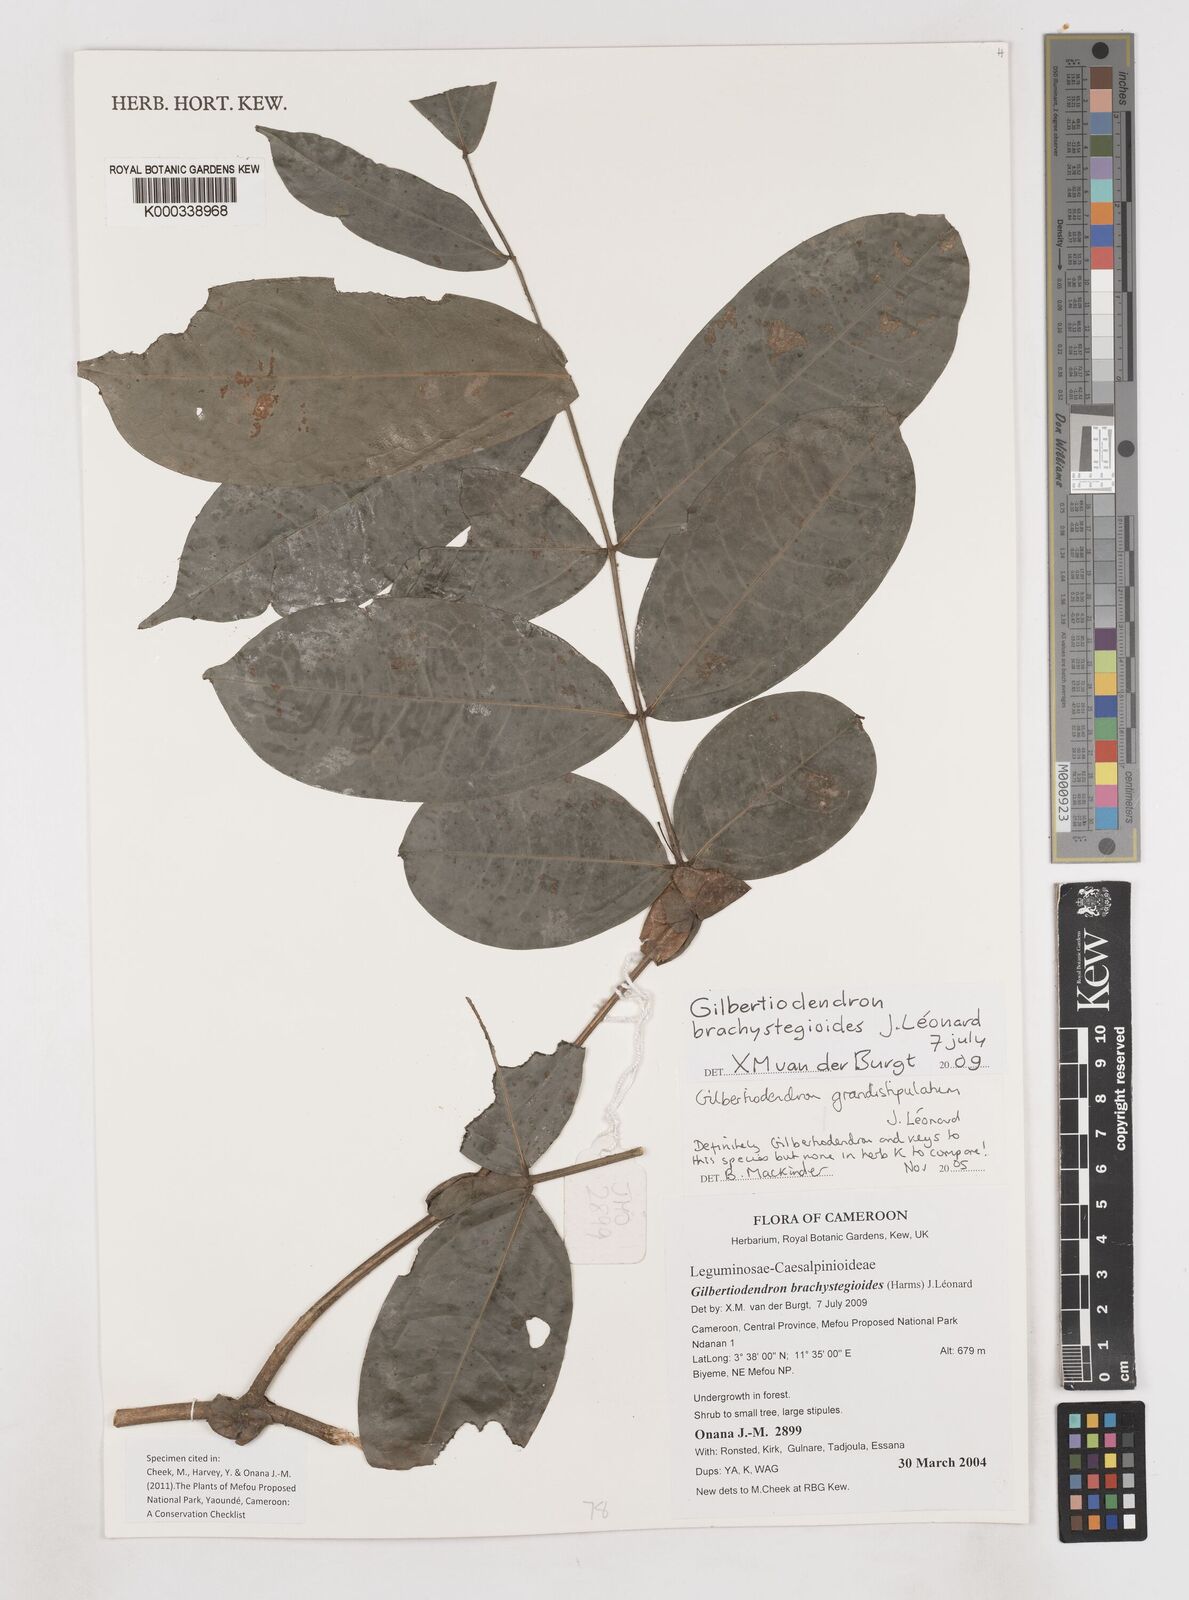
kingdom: Plantae
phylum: Tracheophyta
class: Magnoliopsida
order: Fabales
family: Fabaceae
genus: Gilbertiodendron
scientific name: Gilbertiodendron
